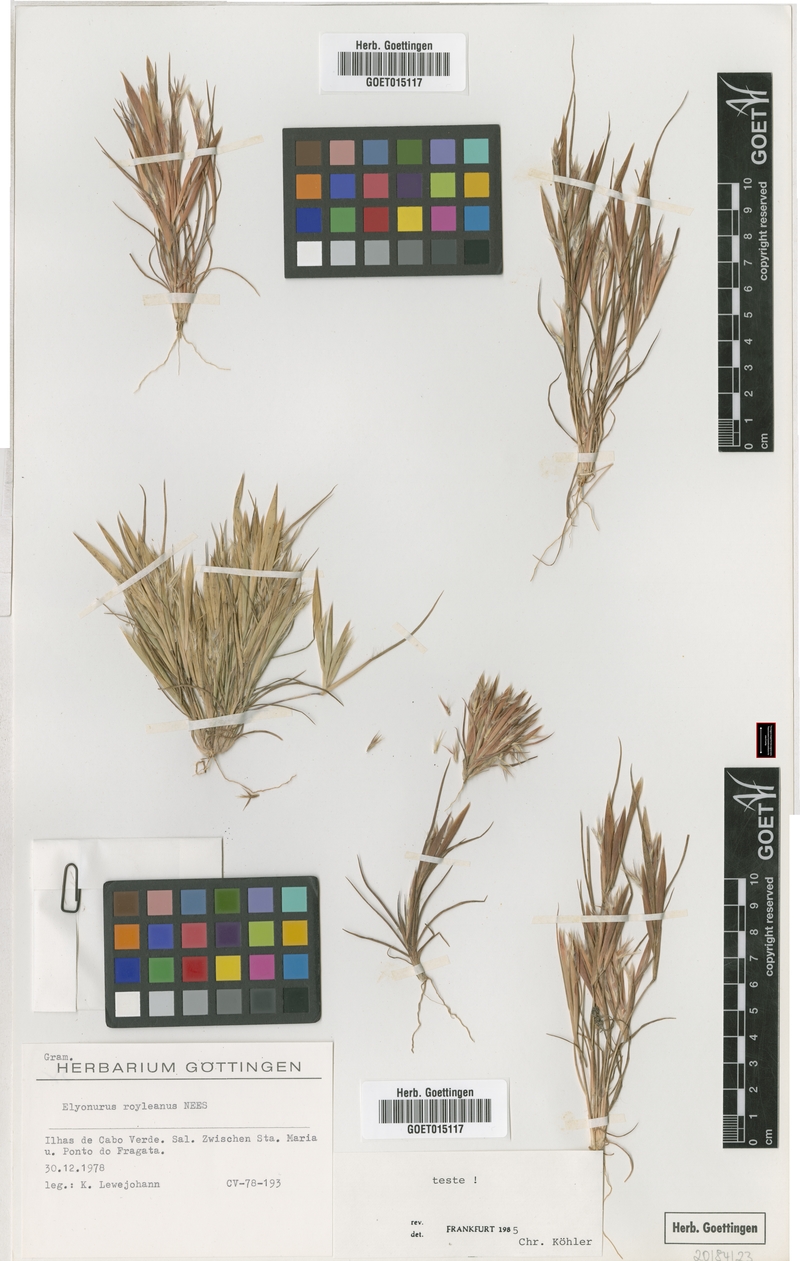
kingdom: Plantae
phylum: Tracheophyta
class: Liliopsida
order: Poales
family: Poaceae
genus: Elionurus
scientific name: Elionurus royleanus
